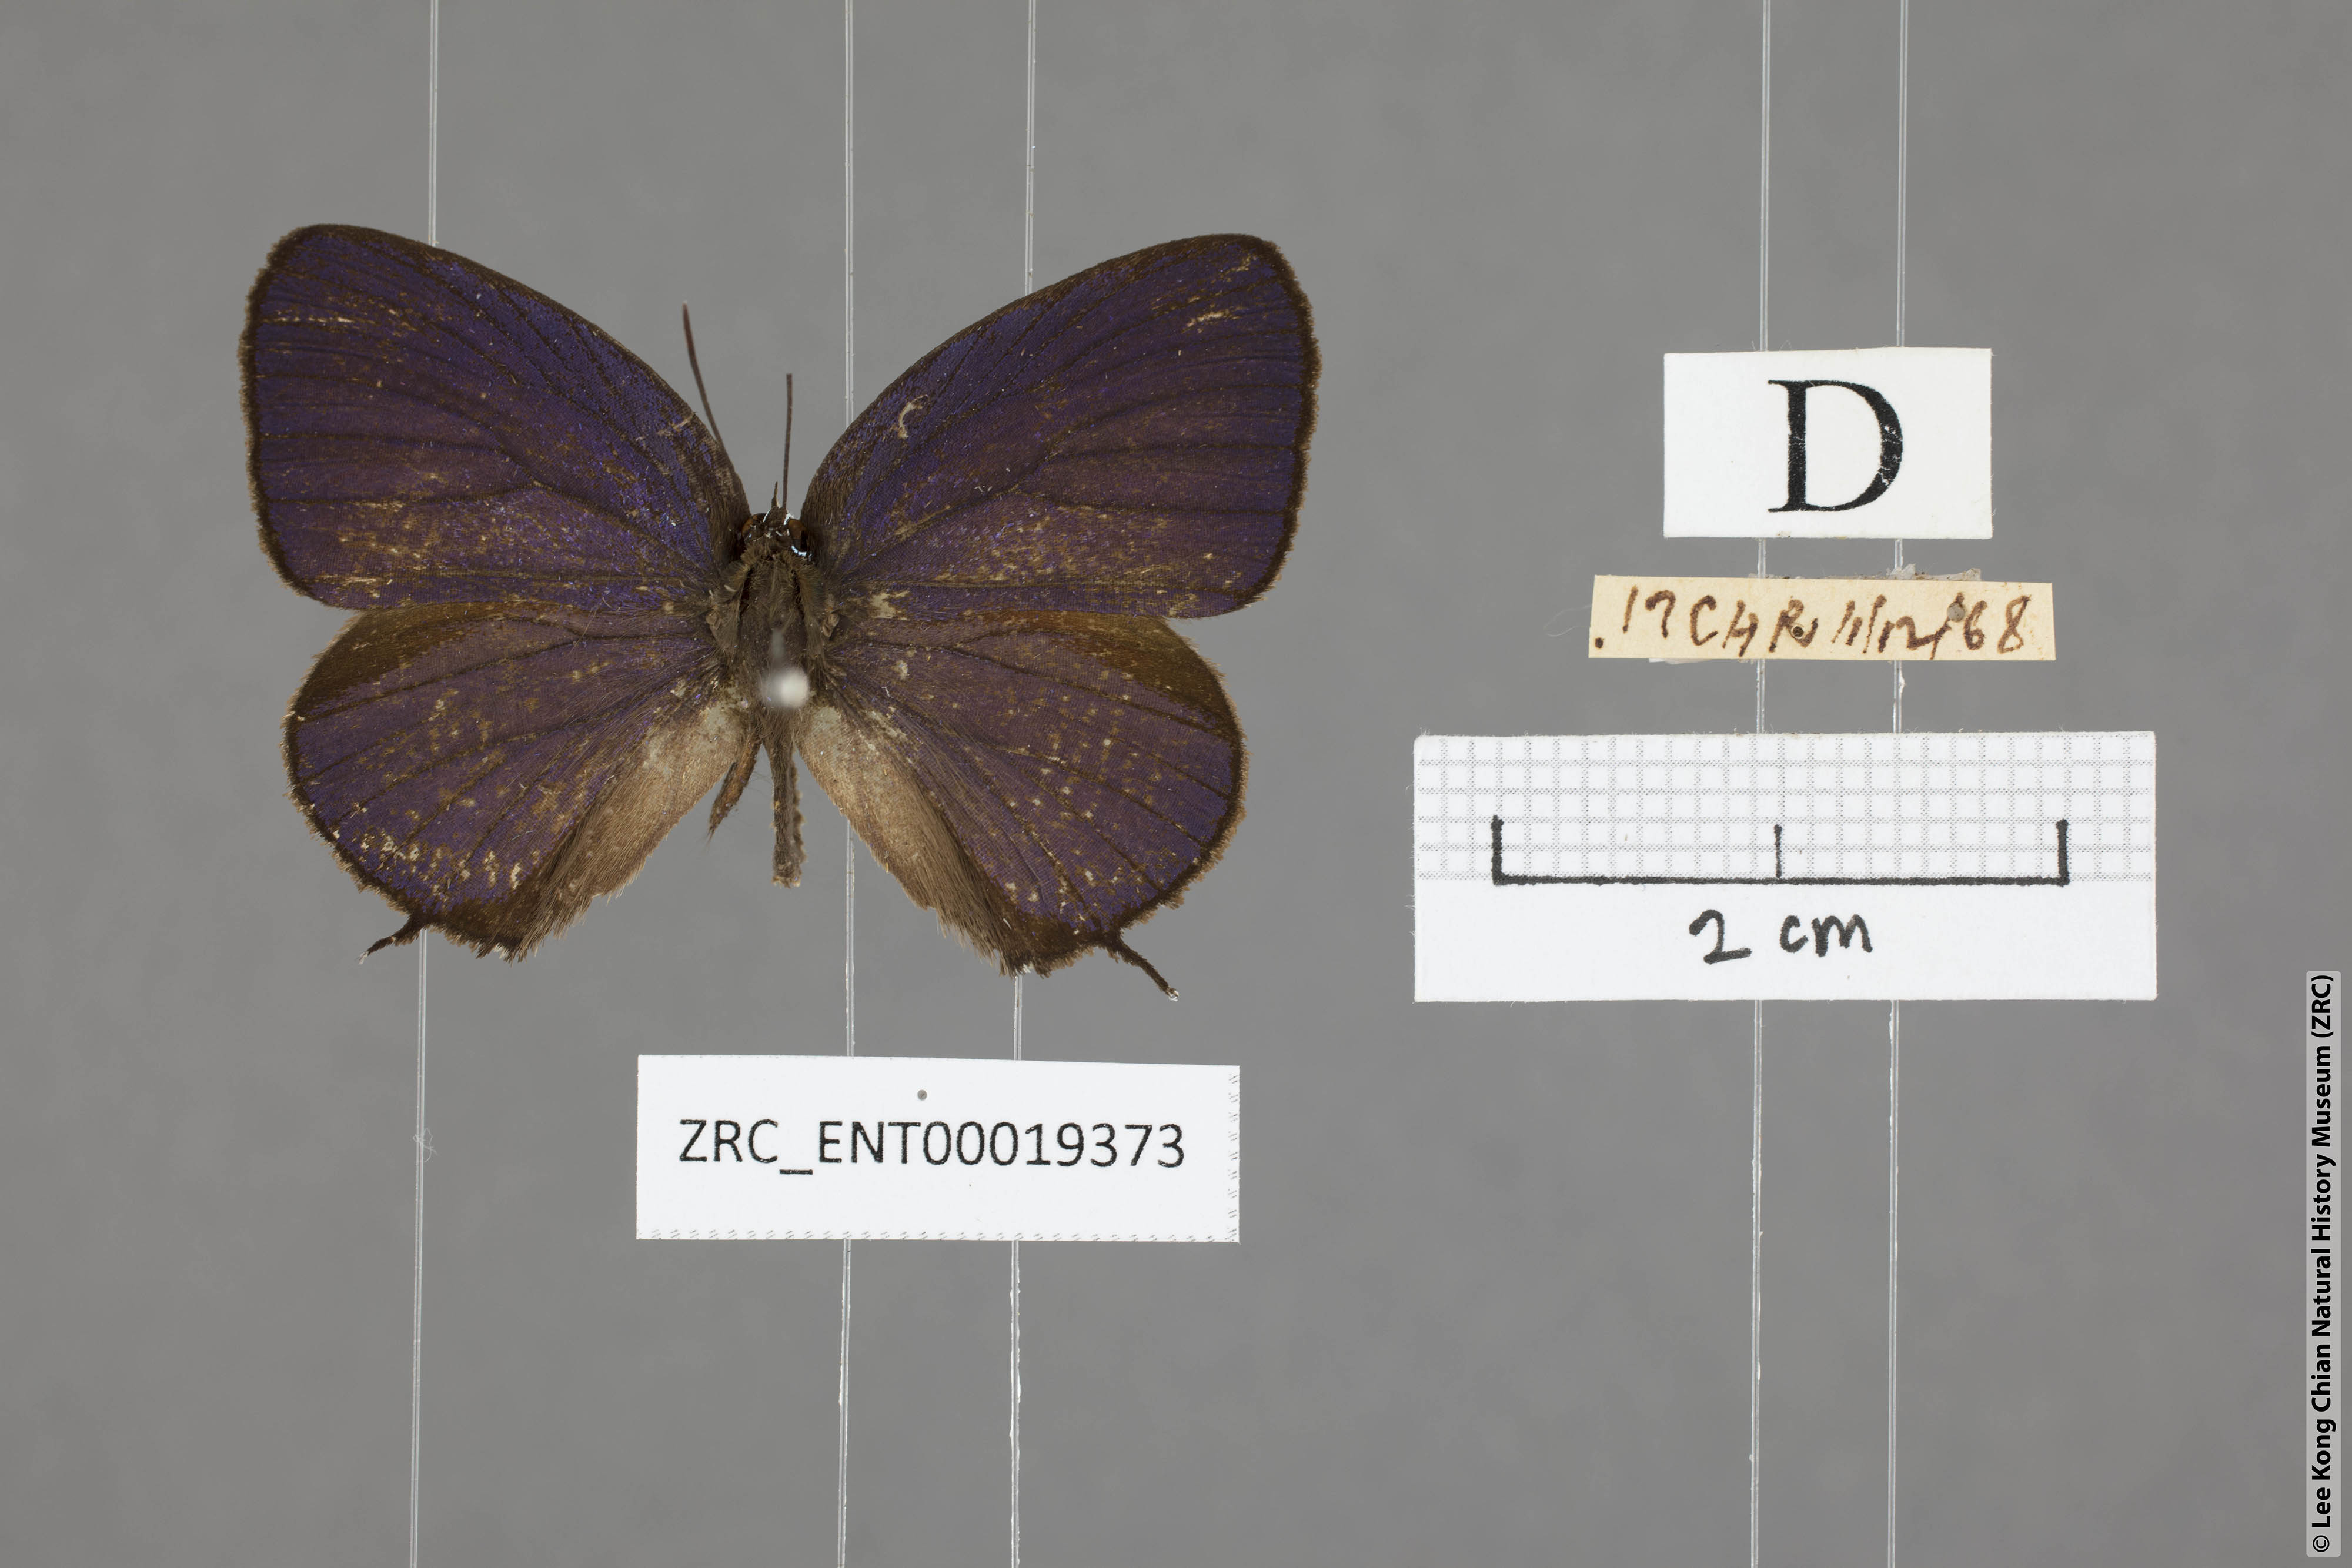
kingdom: Animalia
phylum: Arthropoda
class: Insecta
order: Lepidoptera
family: Lycaenidae
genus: Arhopala
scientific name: Arhopala delta
